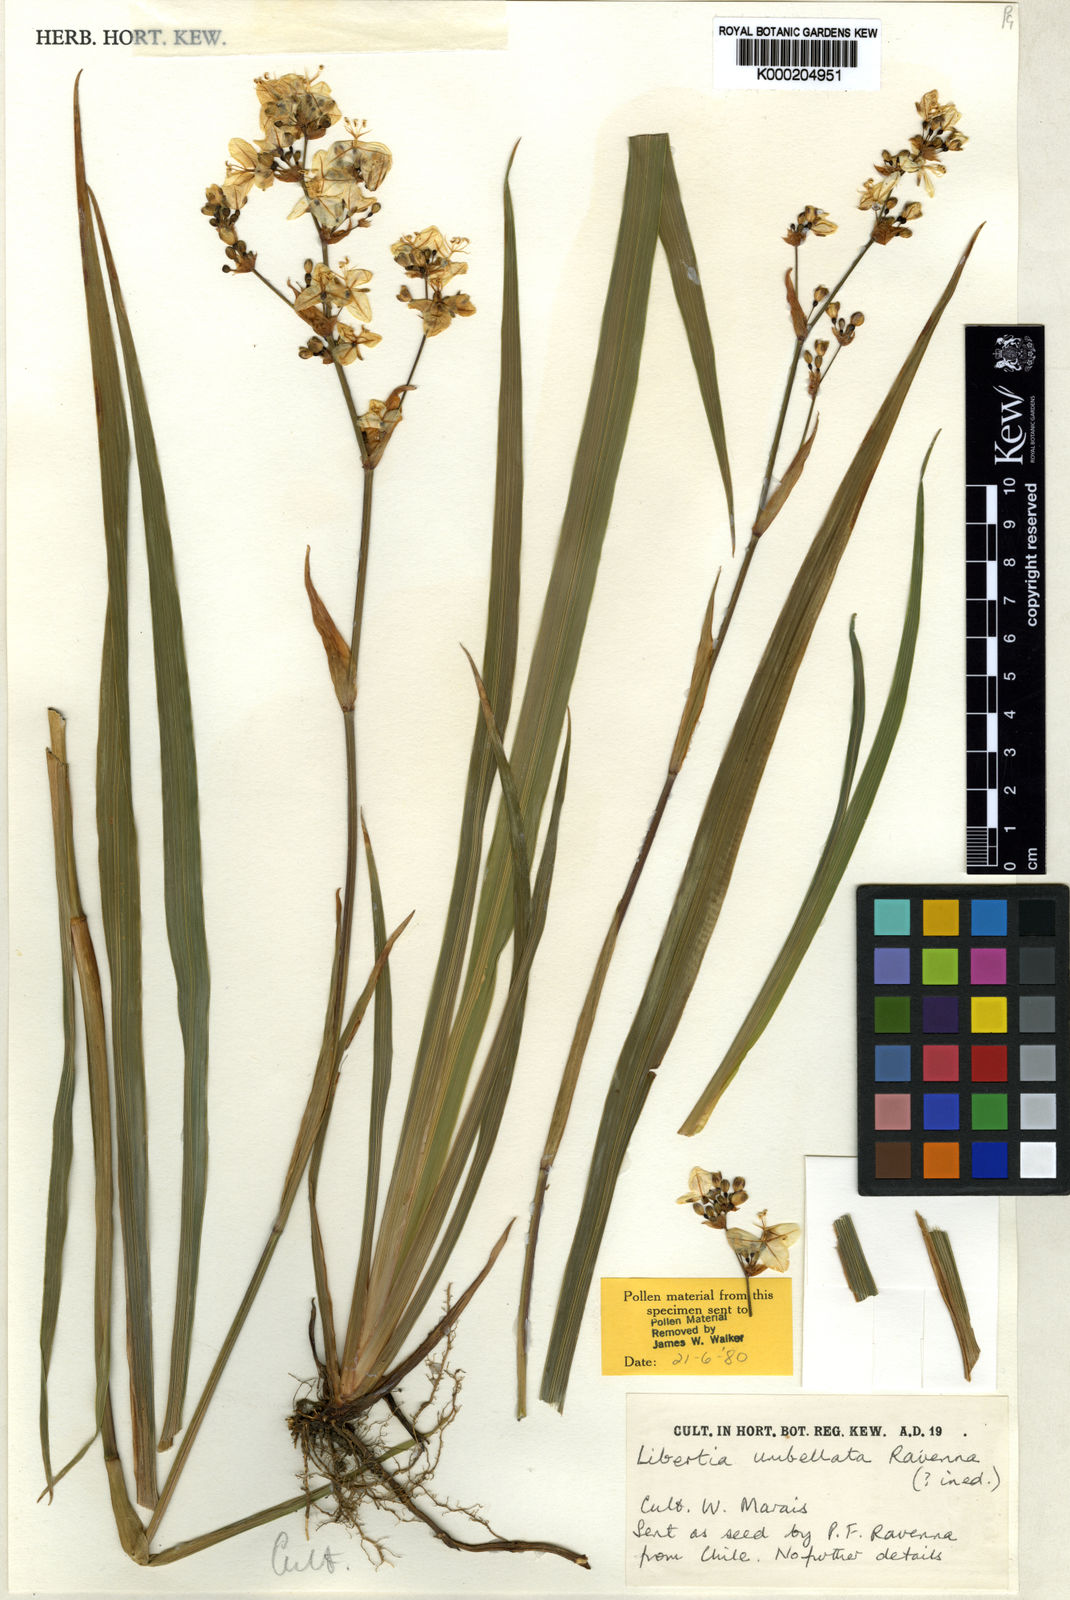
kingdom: Plantae
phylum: Tracheophyta
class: Liliopsida
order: Asparagales
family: Iridaceae
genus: Libertia
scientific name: Libertia umbellata
